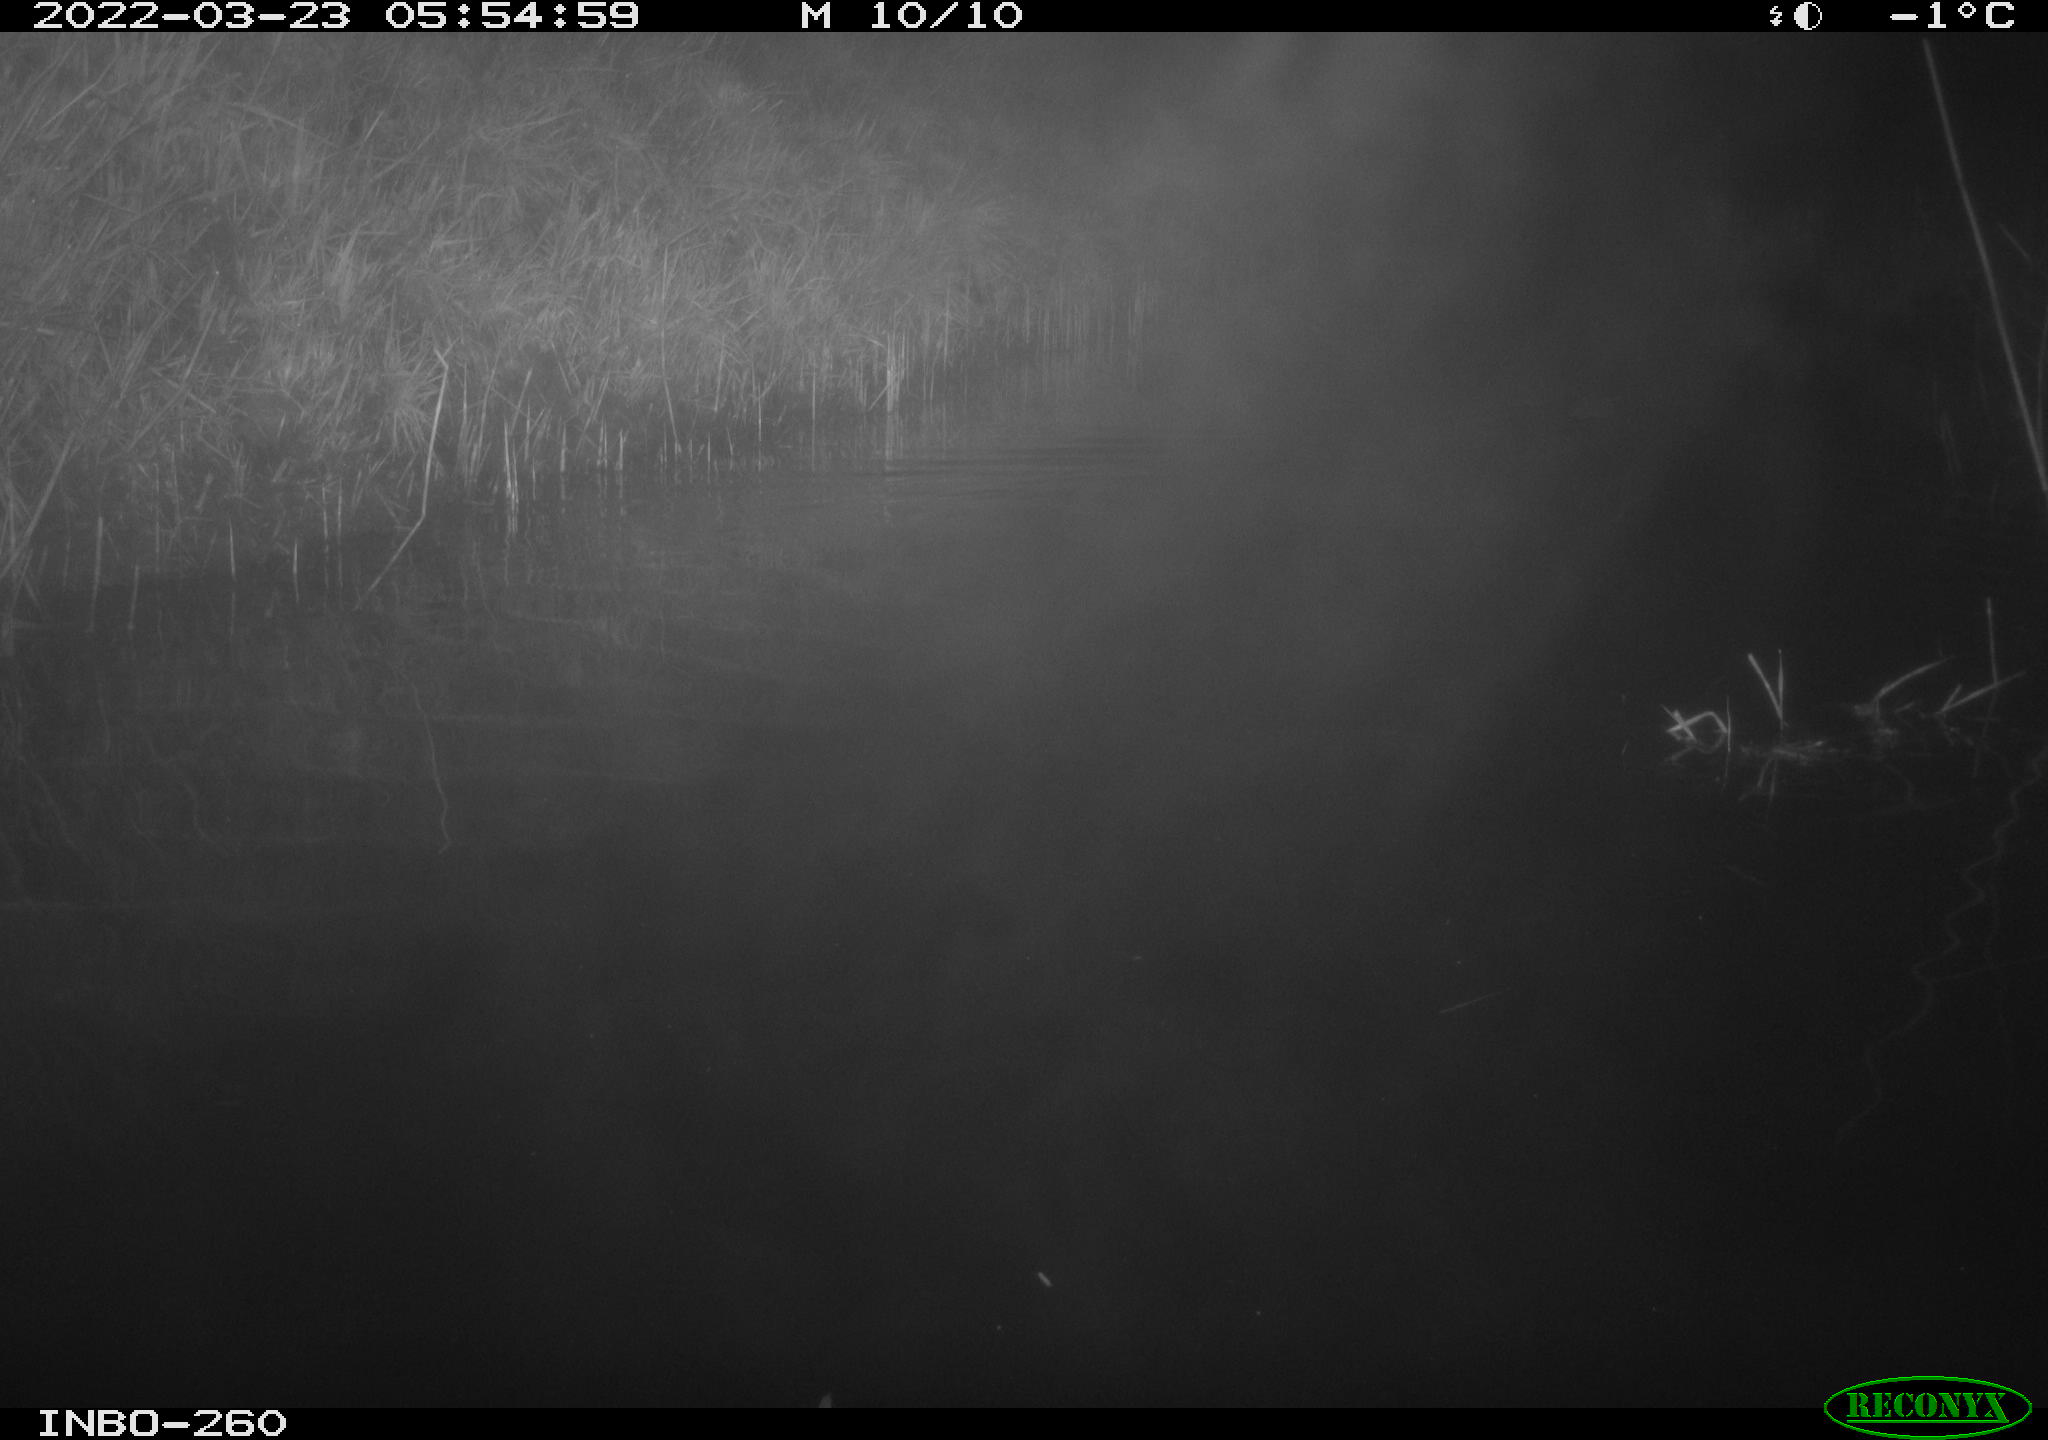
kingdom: Animalia
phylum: Chordata
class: Mammalia
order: Rodentia
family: Cricetidae
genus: Ondatra
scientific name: Ondatra zibethicus
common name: Muskrat
